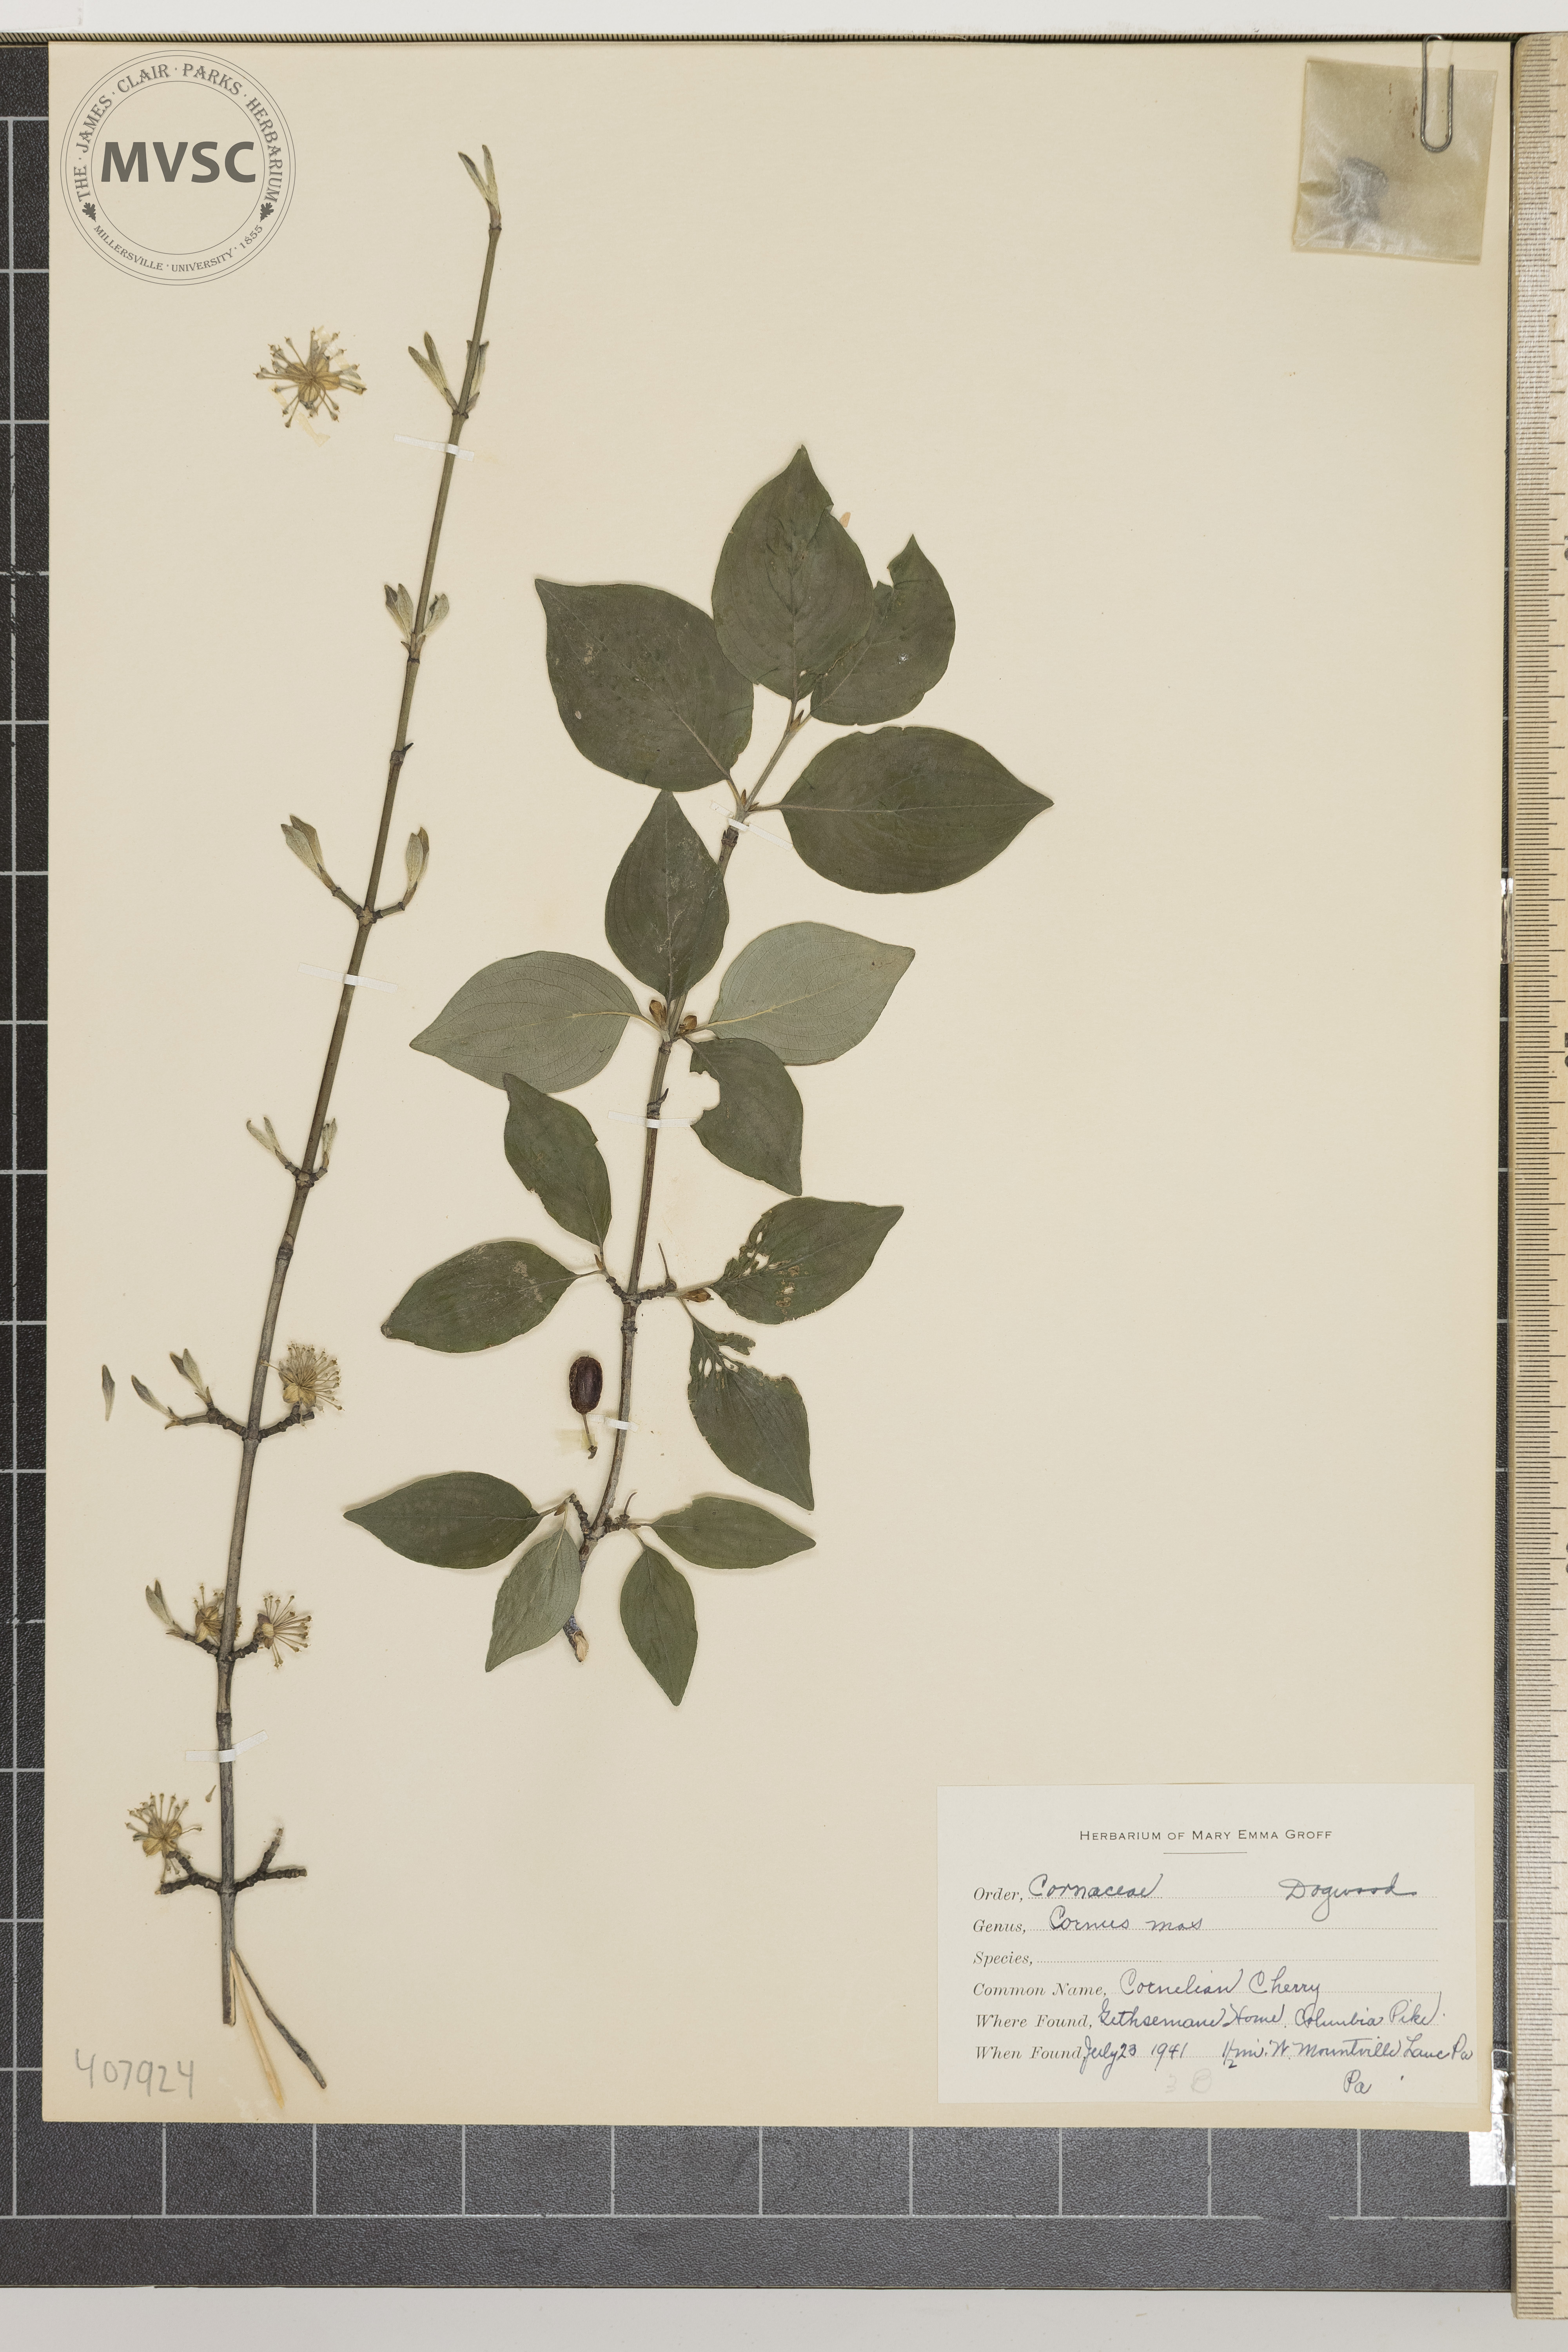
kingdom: Plantae
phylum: Tracheophyta
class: Magnoliopsida
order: Cornales
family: Cornaceae
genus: Cornus
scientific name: Cornus mas
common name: Cornelian Cherry
